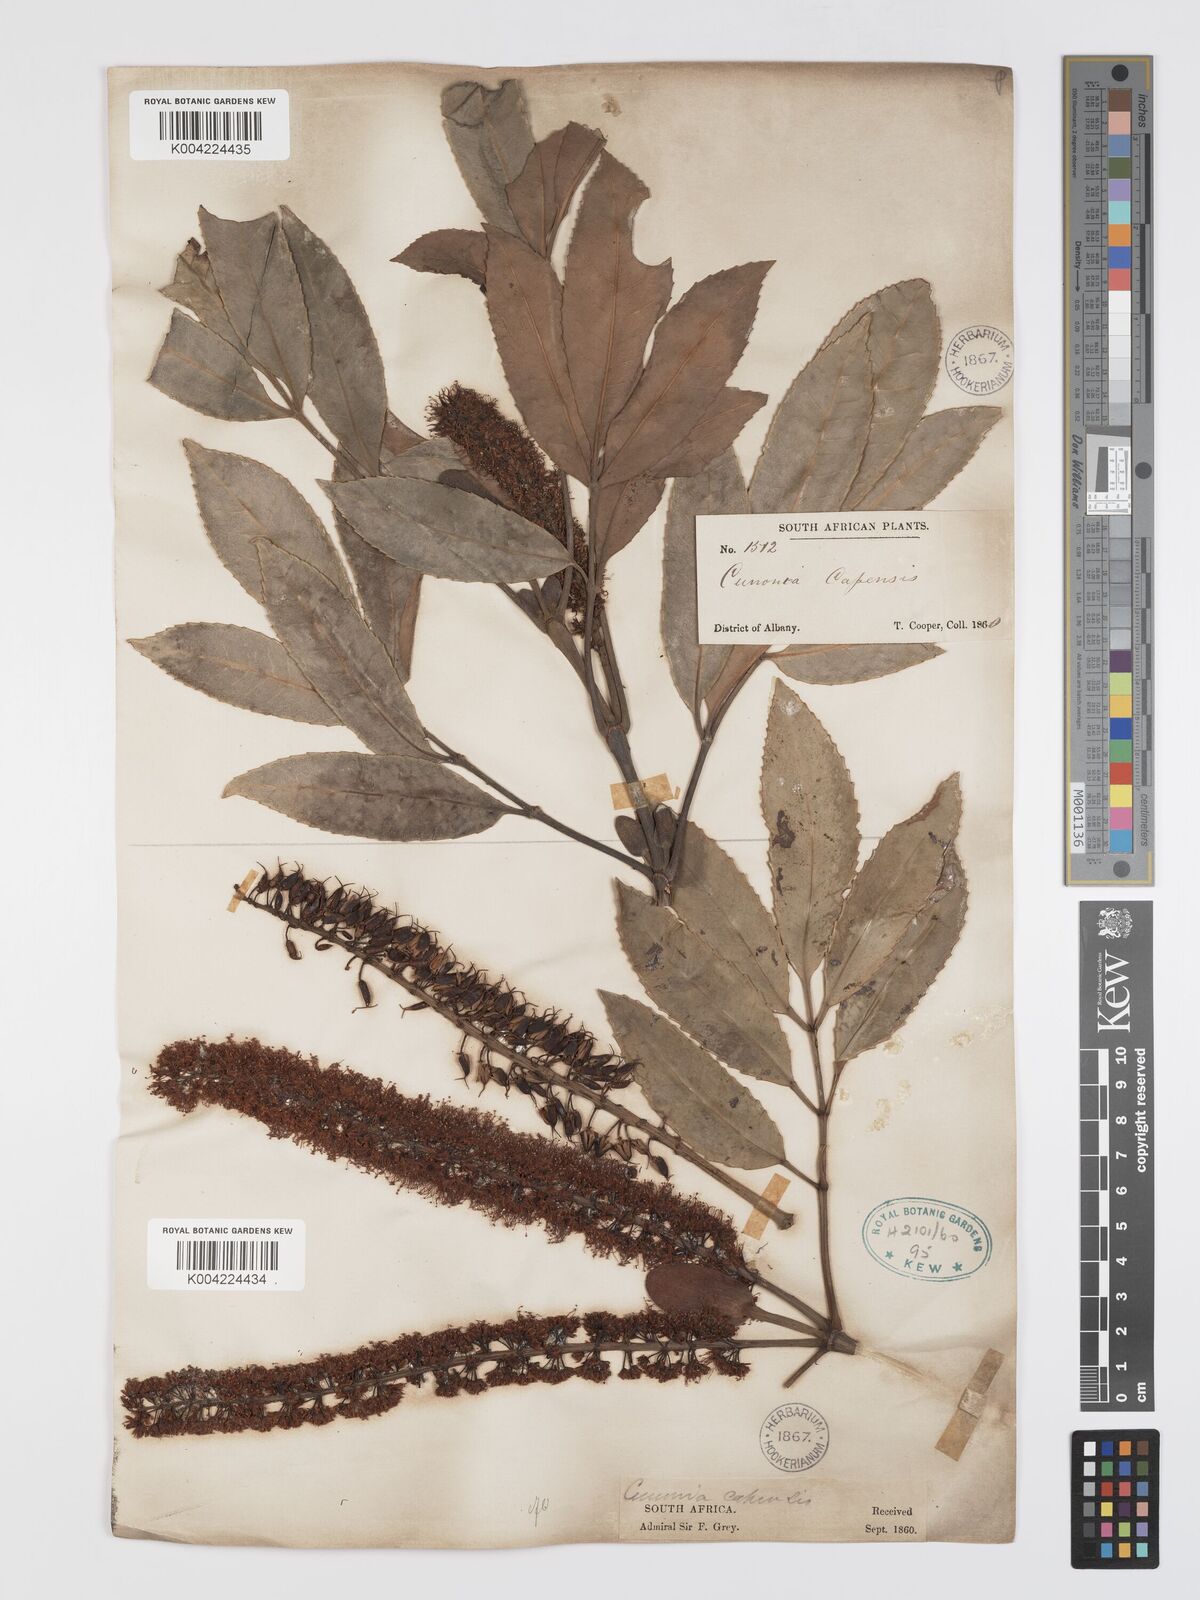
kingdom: Plantae
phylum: Tracheophyta
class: Magnoliopsida
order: Oxalidales
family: Cunoniaceae
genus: Cunonia
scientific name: Cunonia capensis
